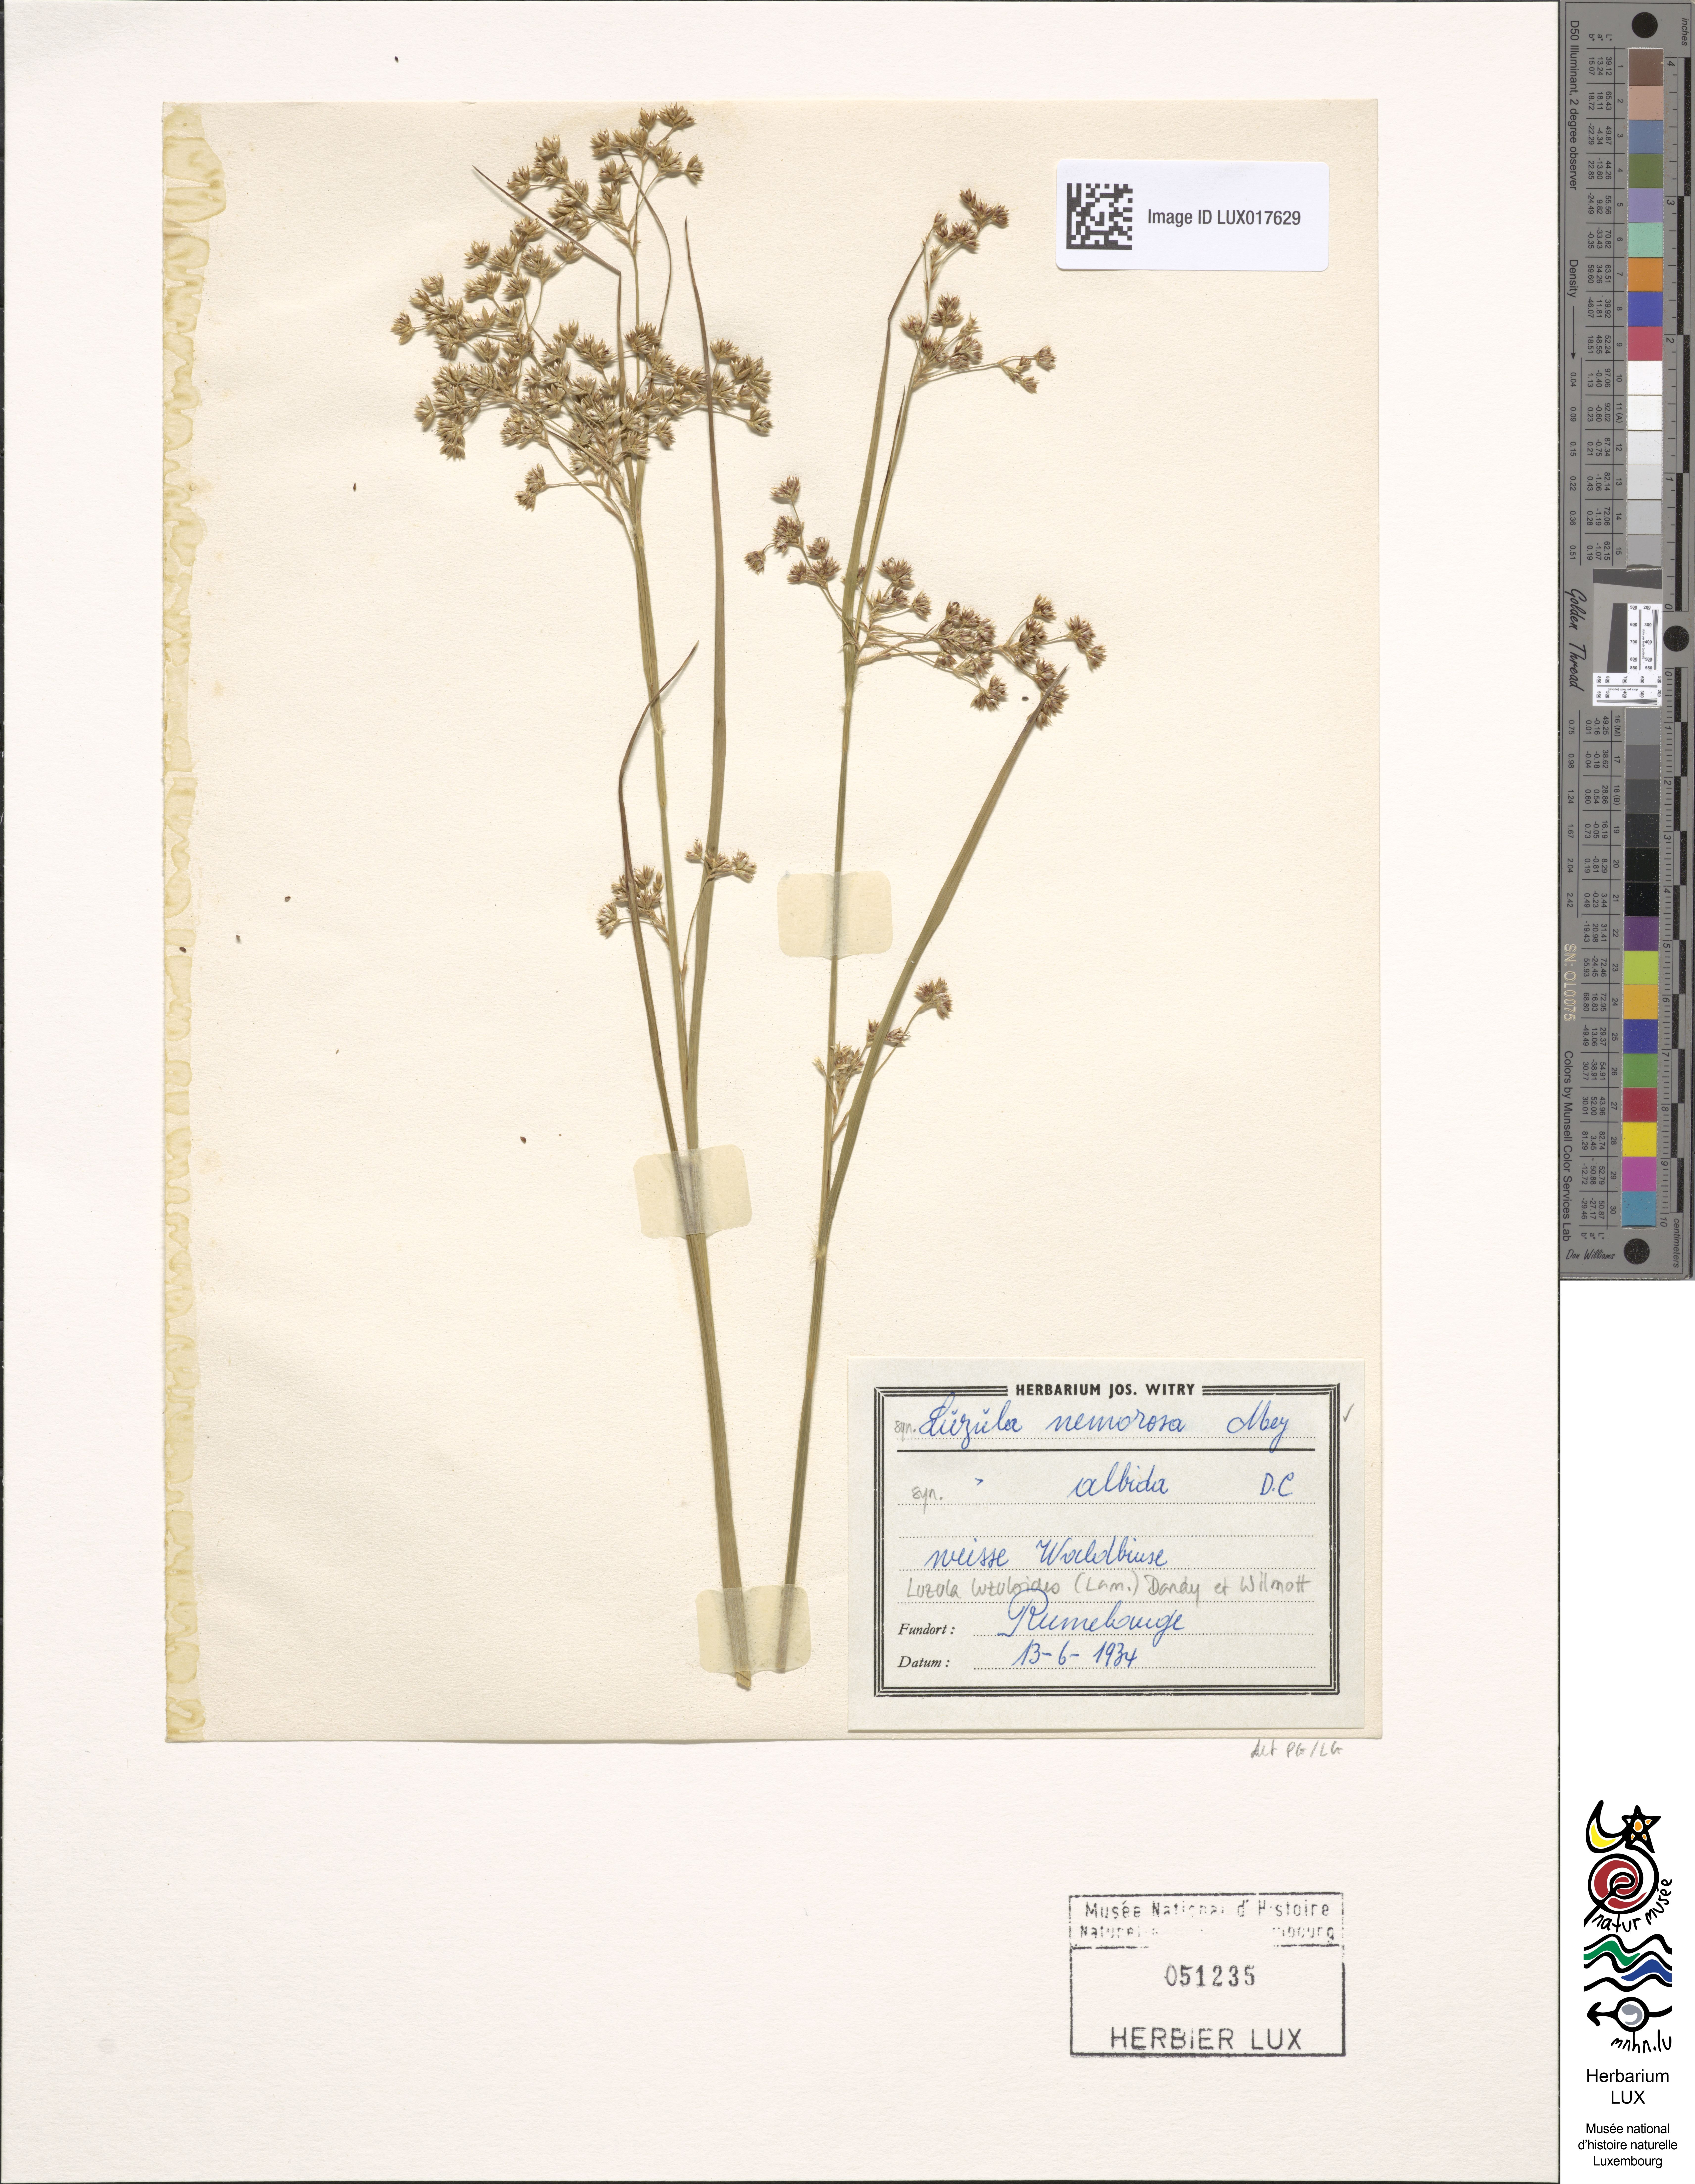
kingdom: Plantae
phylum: Tracheophyta
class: Liliopsida
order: Poales
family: Juncaceae
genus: Luzula
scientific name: Luzula luzuloides
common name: White wood-rush
